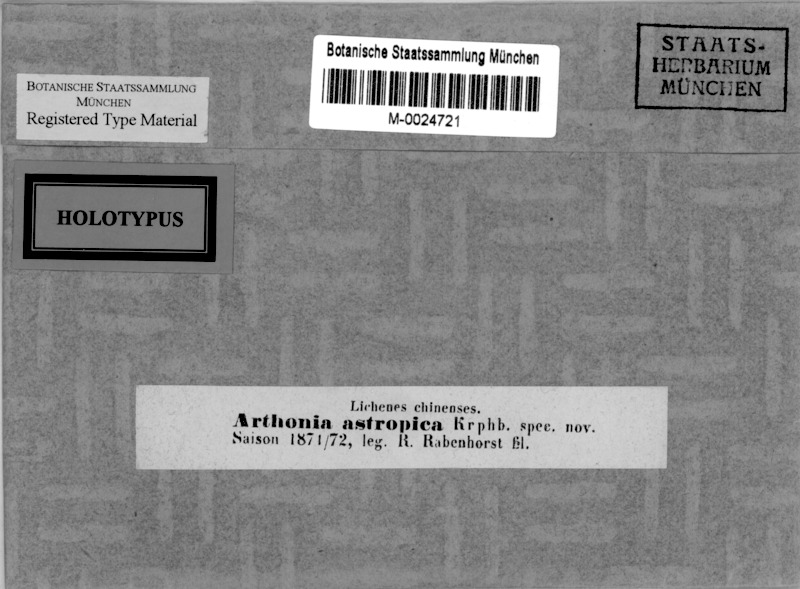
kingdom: Fungi
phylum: Ascomycota
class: Arthoniomycetes
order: Arthoniales
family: Arthoniaceae
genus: Arthonia
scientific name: Arthonia
